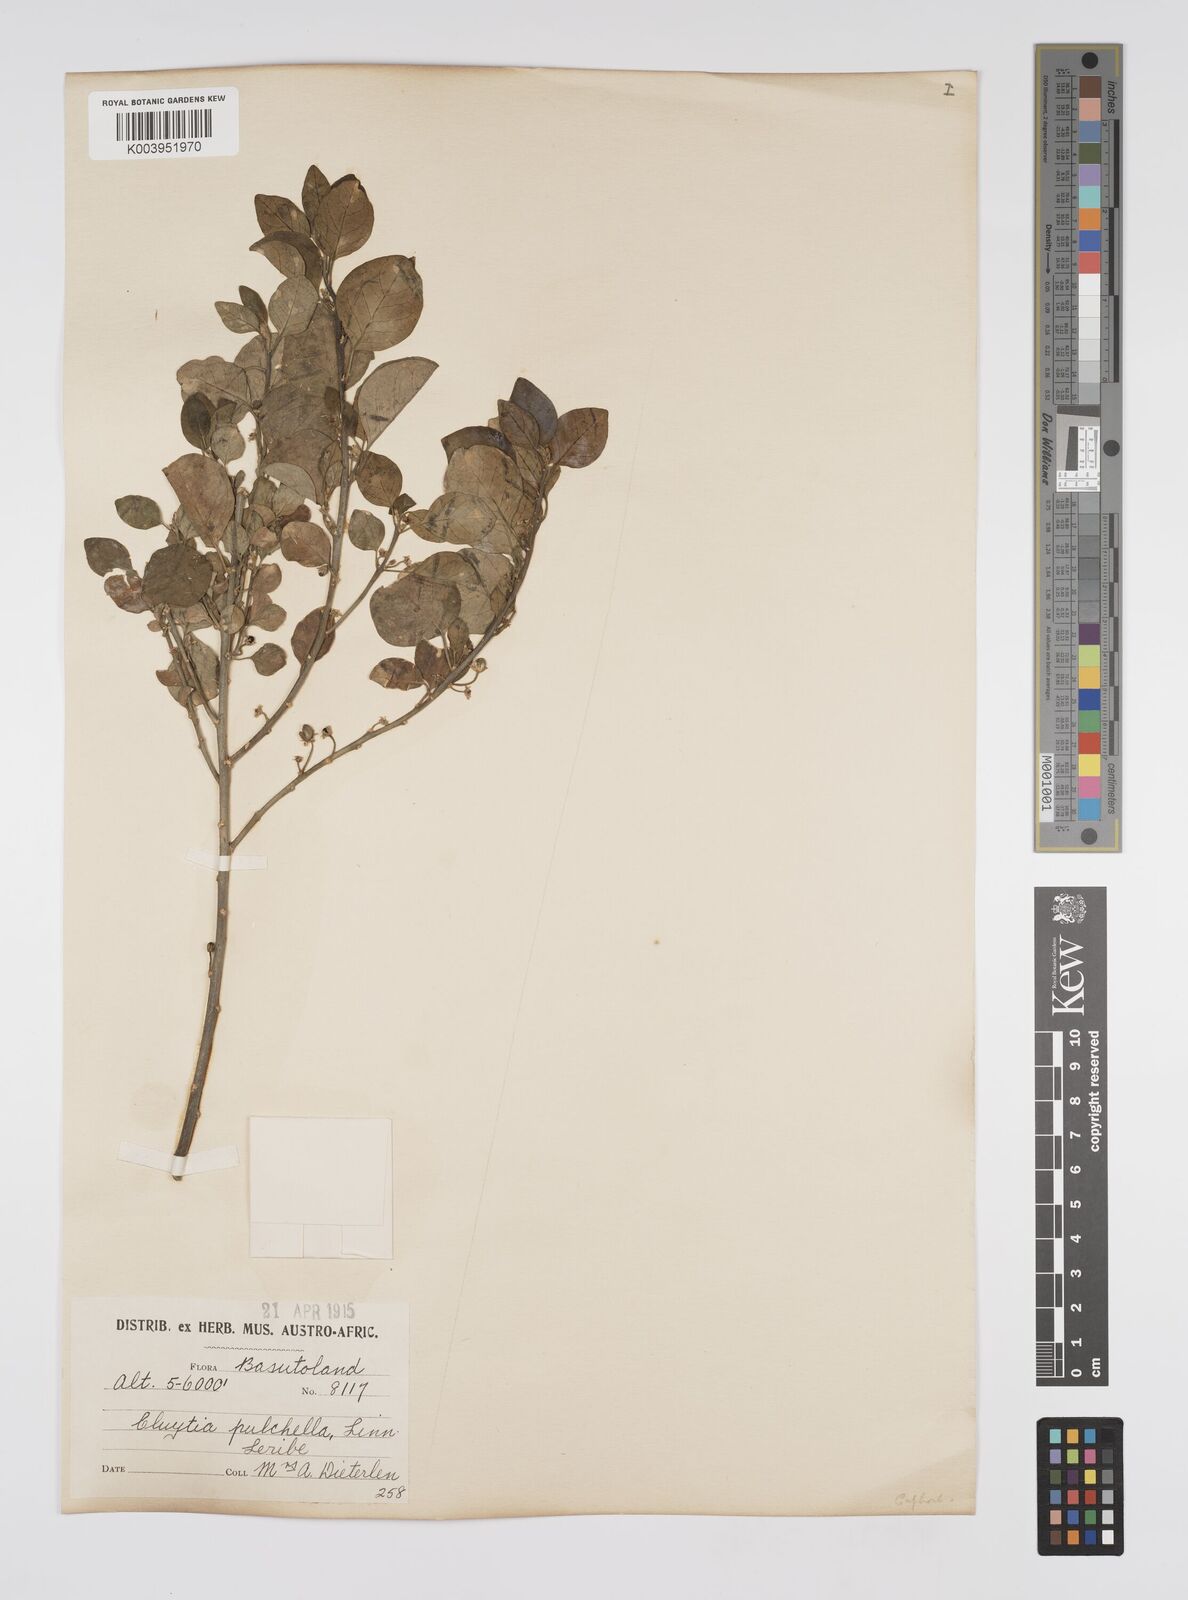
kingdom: Plantae
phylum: Tracheophyta
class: Magnoliopsida
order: Malpighiales
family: Peraceae
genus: Clutia
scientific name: Clutia pulchella
